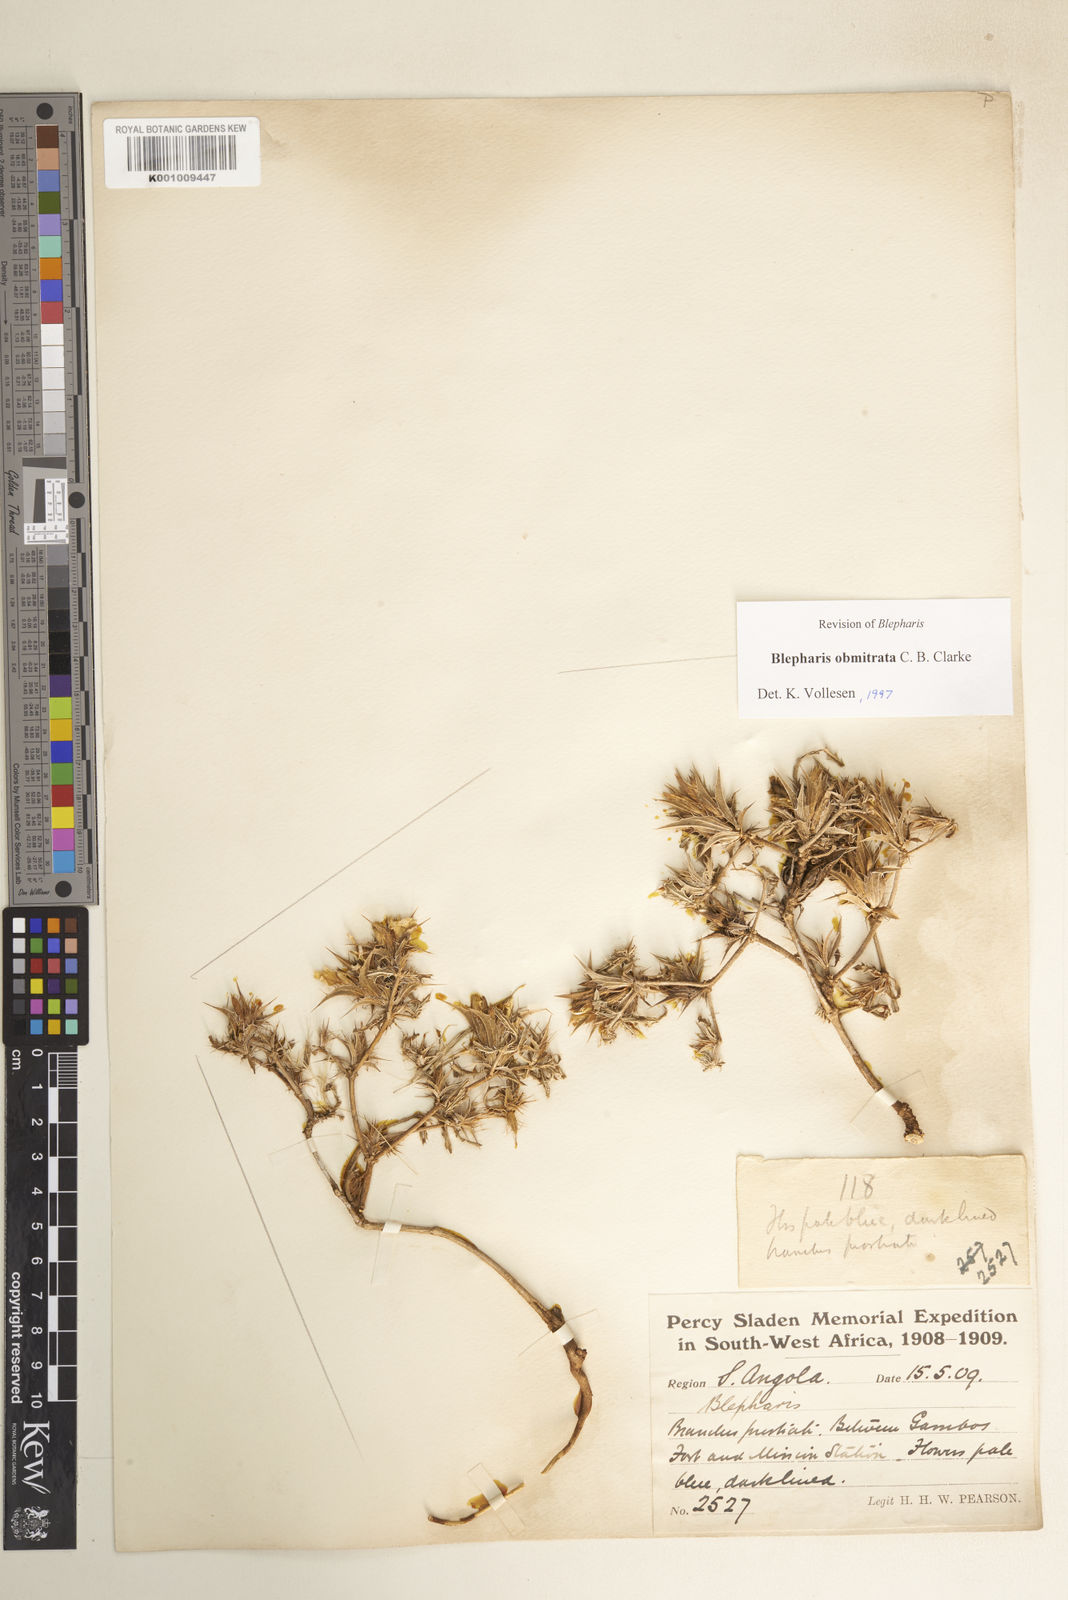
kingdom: Plantae
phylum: Tracheophyta
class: Magnoliopsida
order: Lamiales
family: Acanthaceae
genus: Blepharis
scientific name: Blepharis obmitrata
